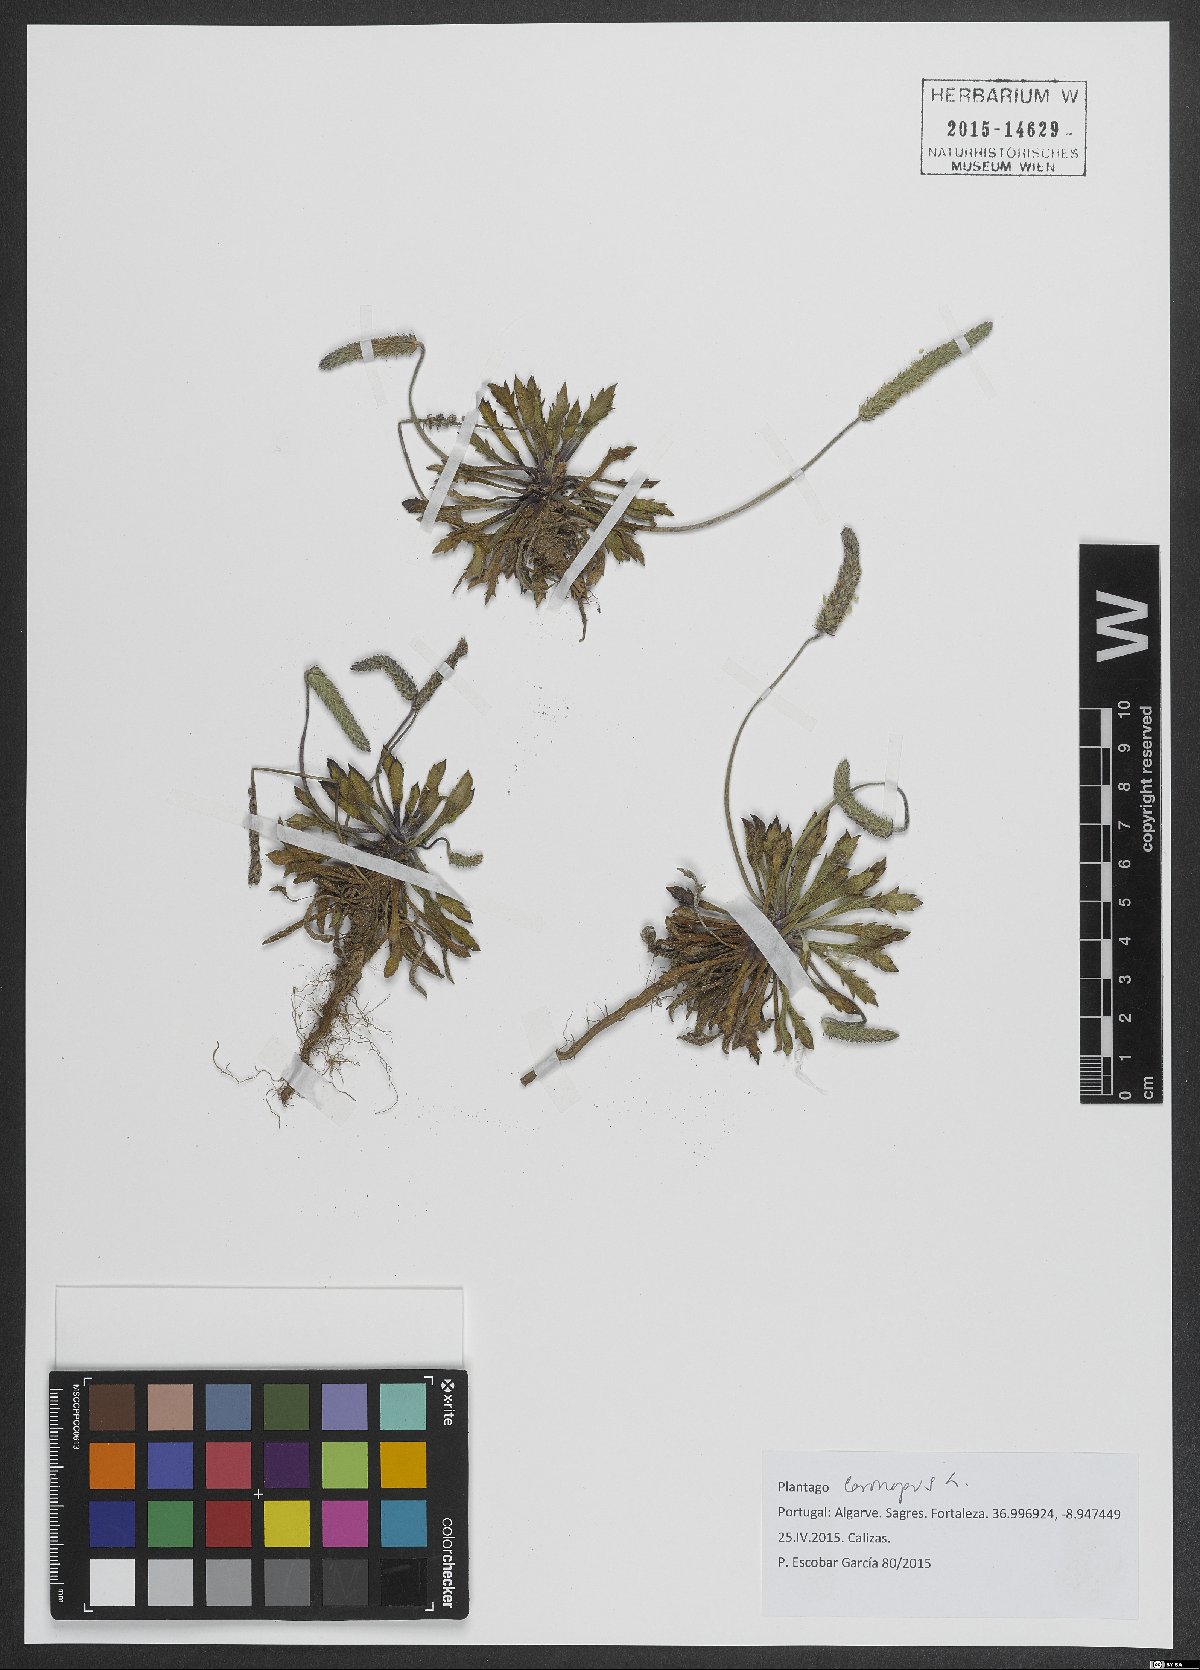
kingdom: Plantae
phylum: Tracheophyta
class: Magnoliopsida
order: Lamiales
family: Plantaginaceae
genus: Plantago
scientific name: Plantago coronopus
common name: Buck's-horn plantain
